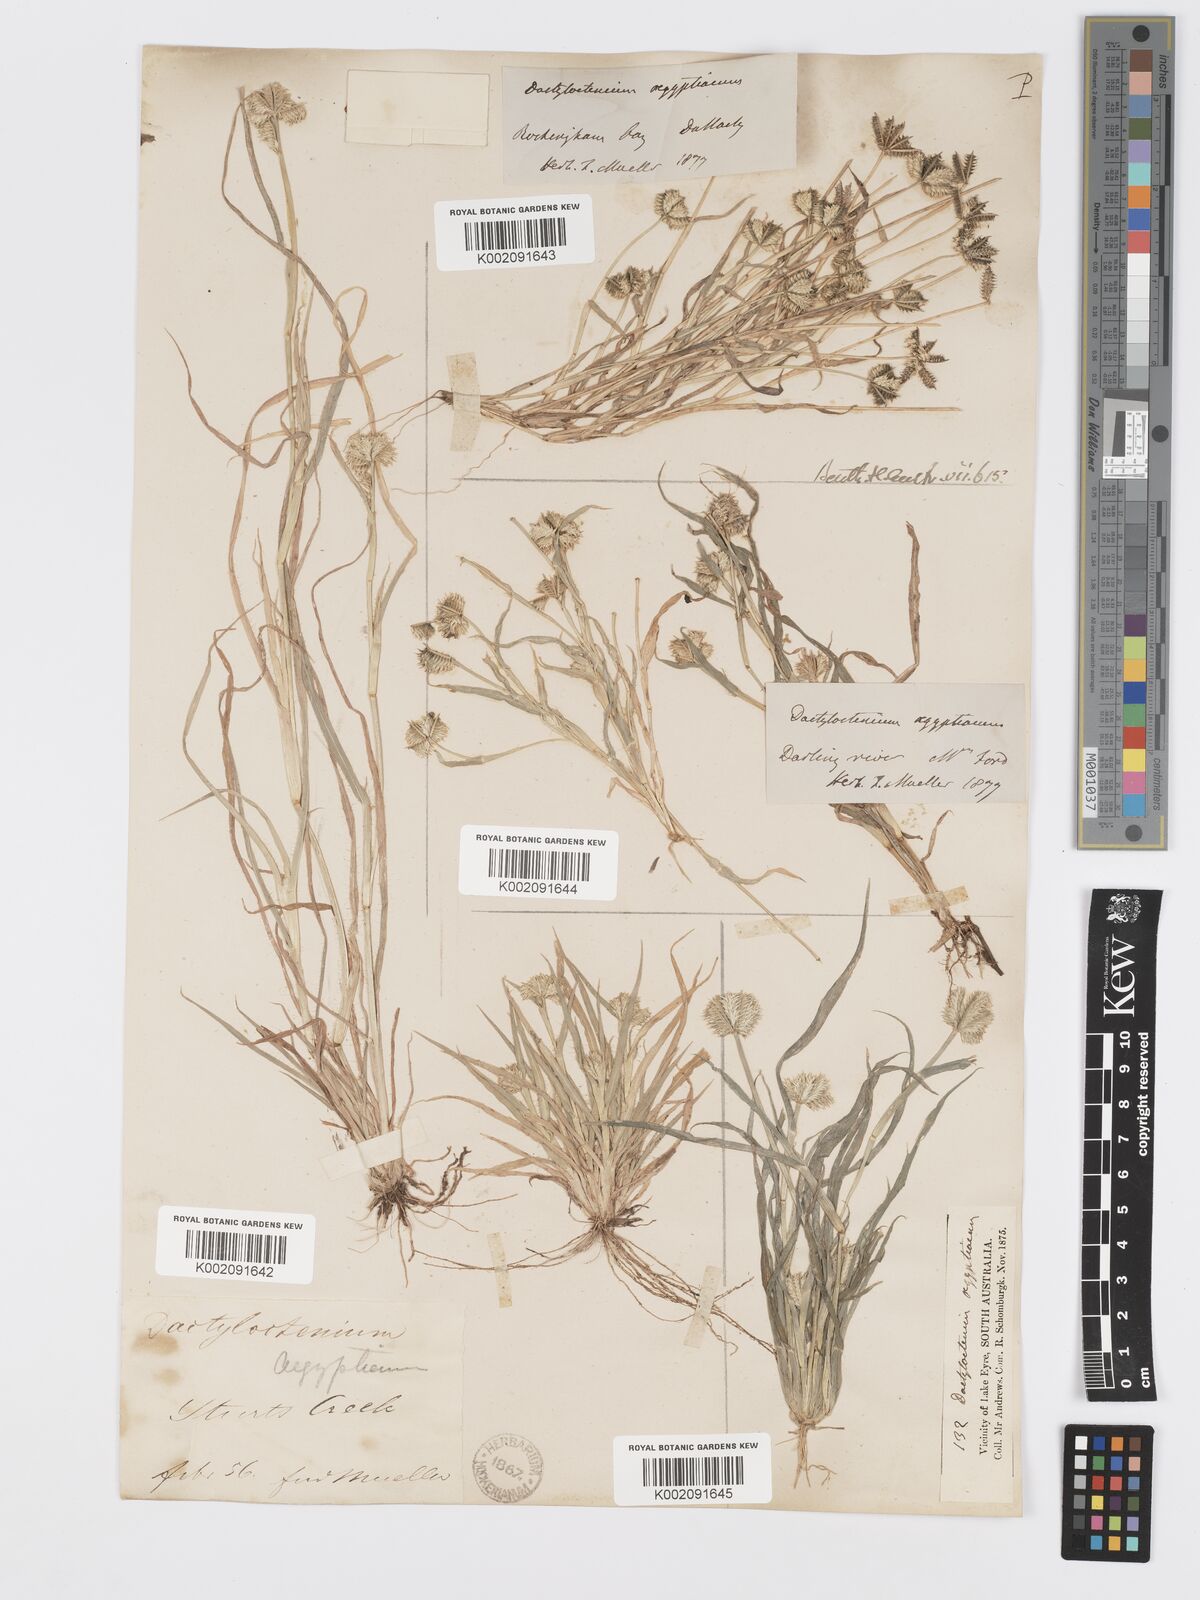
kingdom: Plantae
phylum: Tracheophyta
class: Liliopsida
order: Poales
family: Poaceae
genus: Dactyloctenium
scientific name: Dactyloctenium radulans
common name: Button-grass
